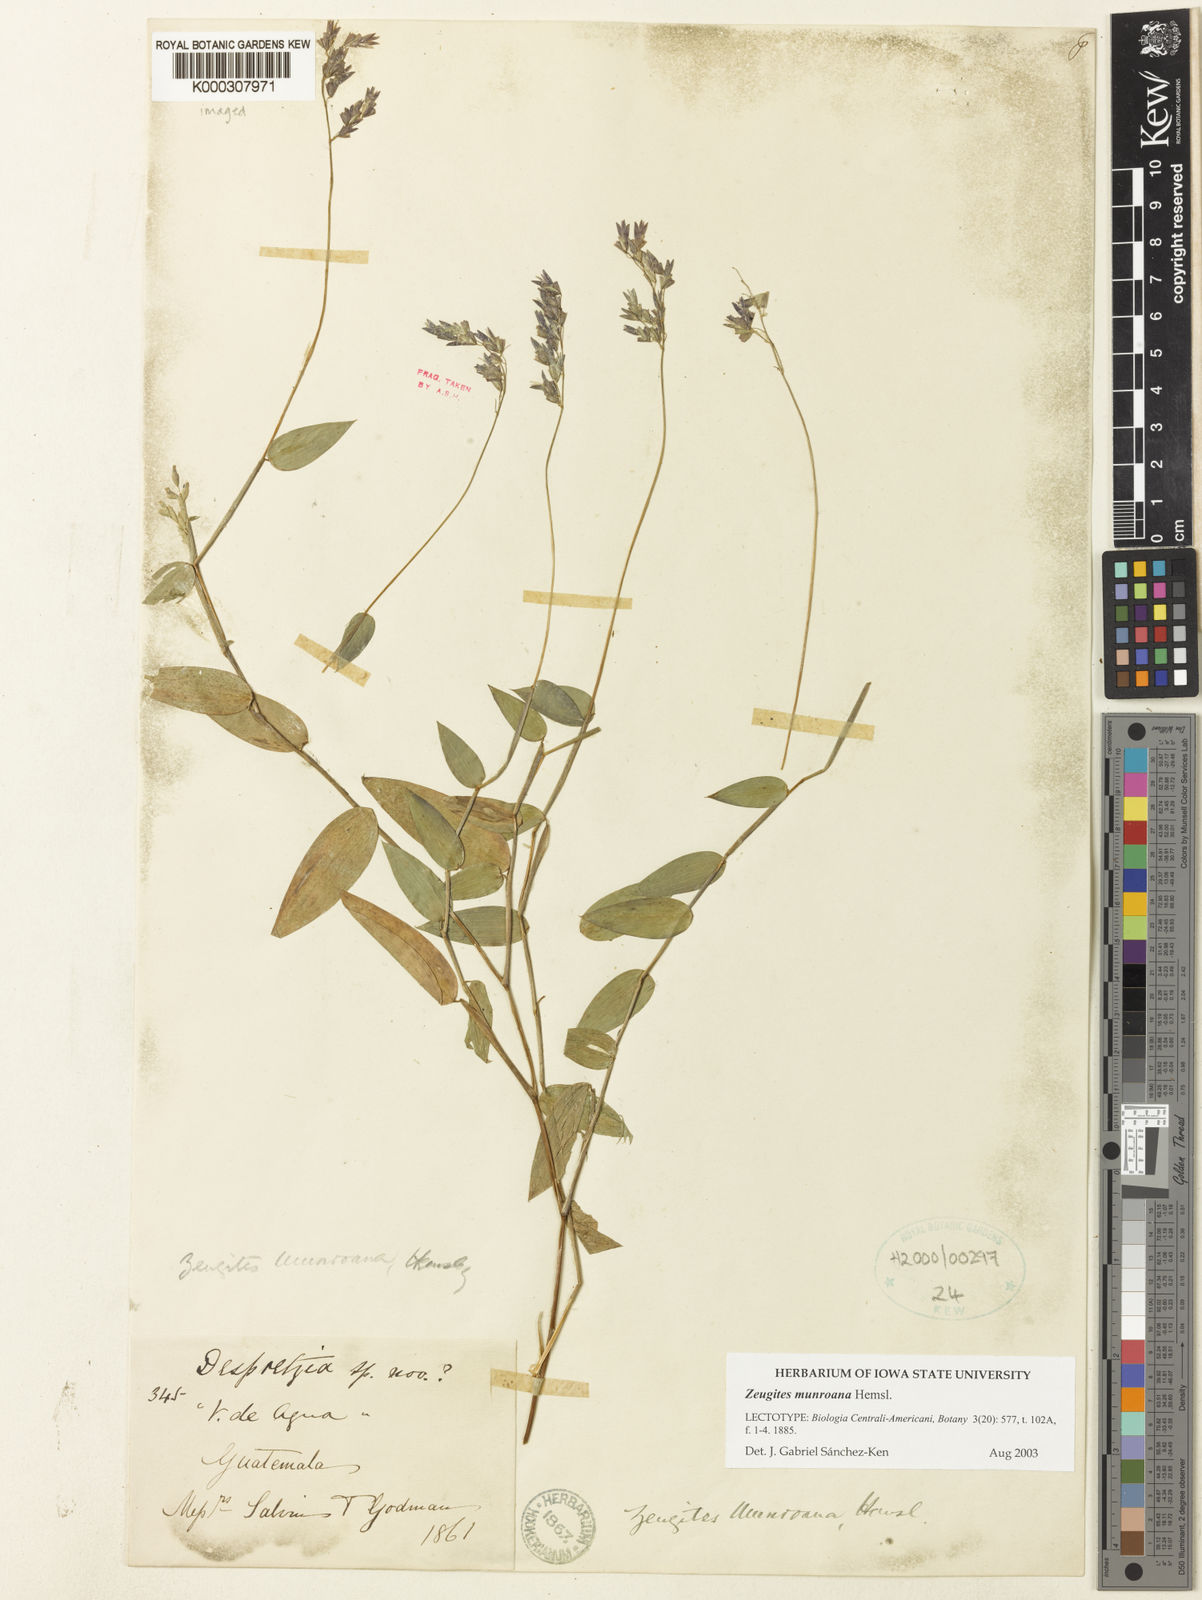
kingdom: Plantae
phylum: Tracheophyta
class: Liliopsida
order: Poales
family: Poaceae
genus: Zeugites
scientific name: Zeugites
